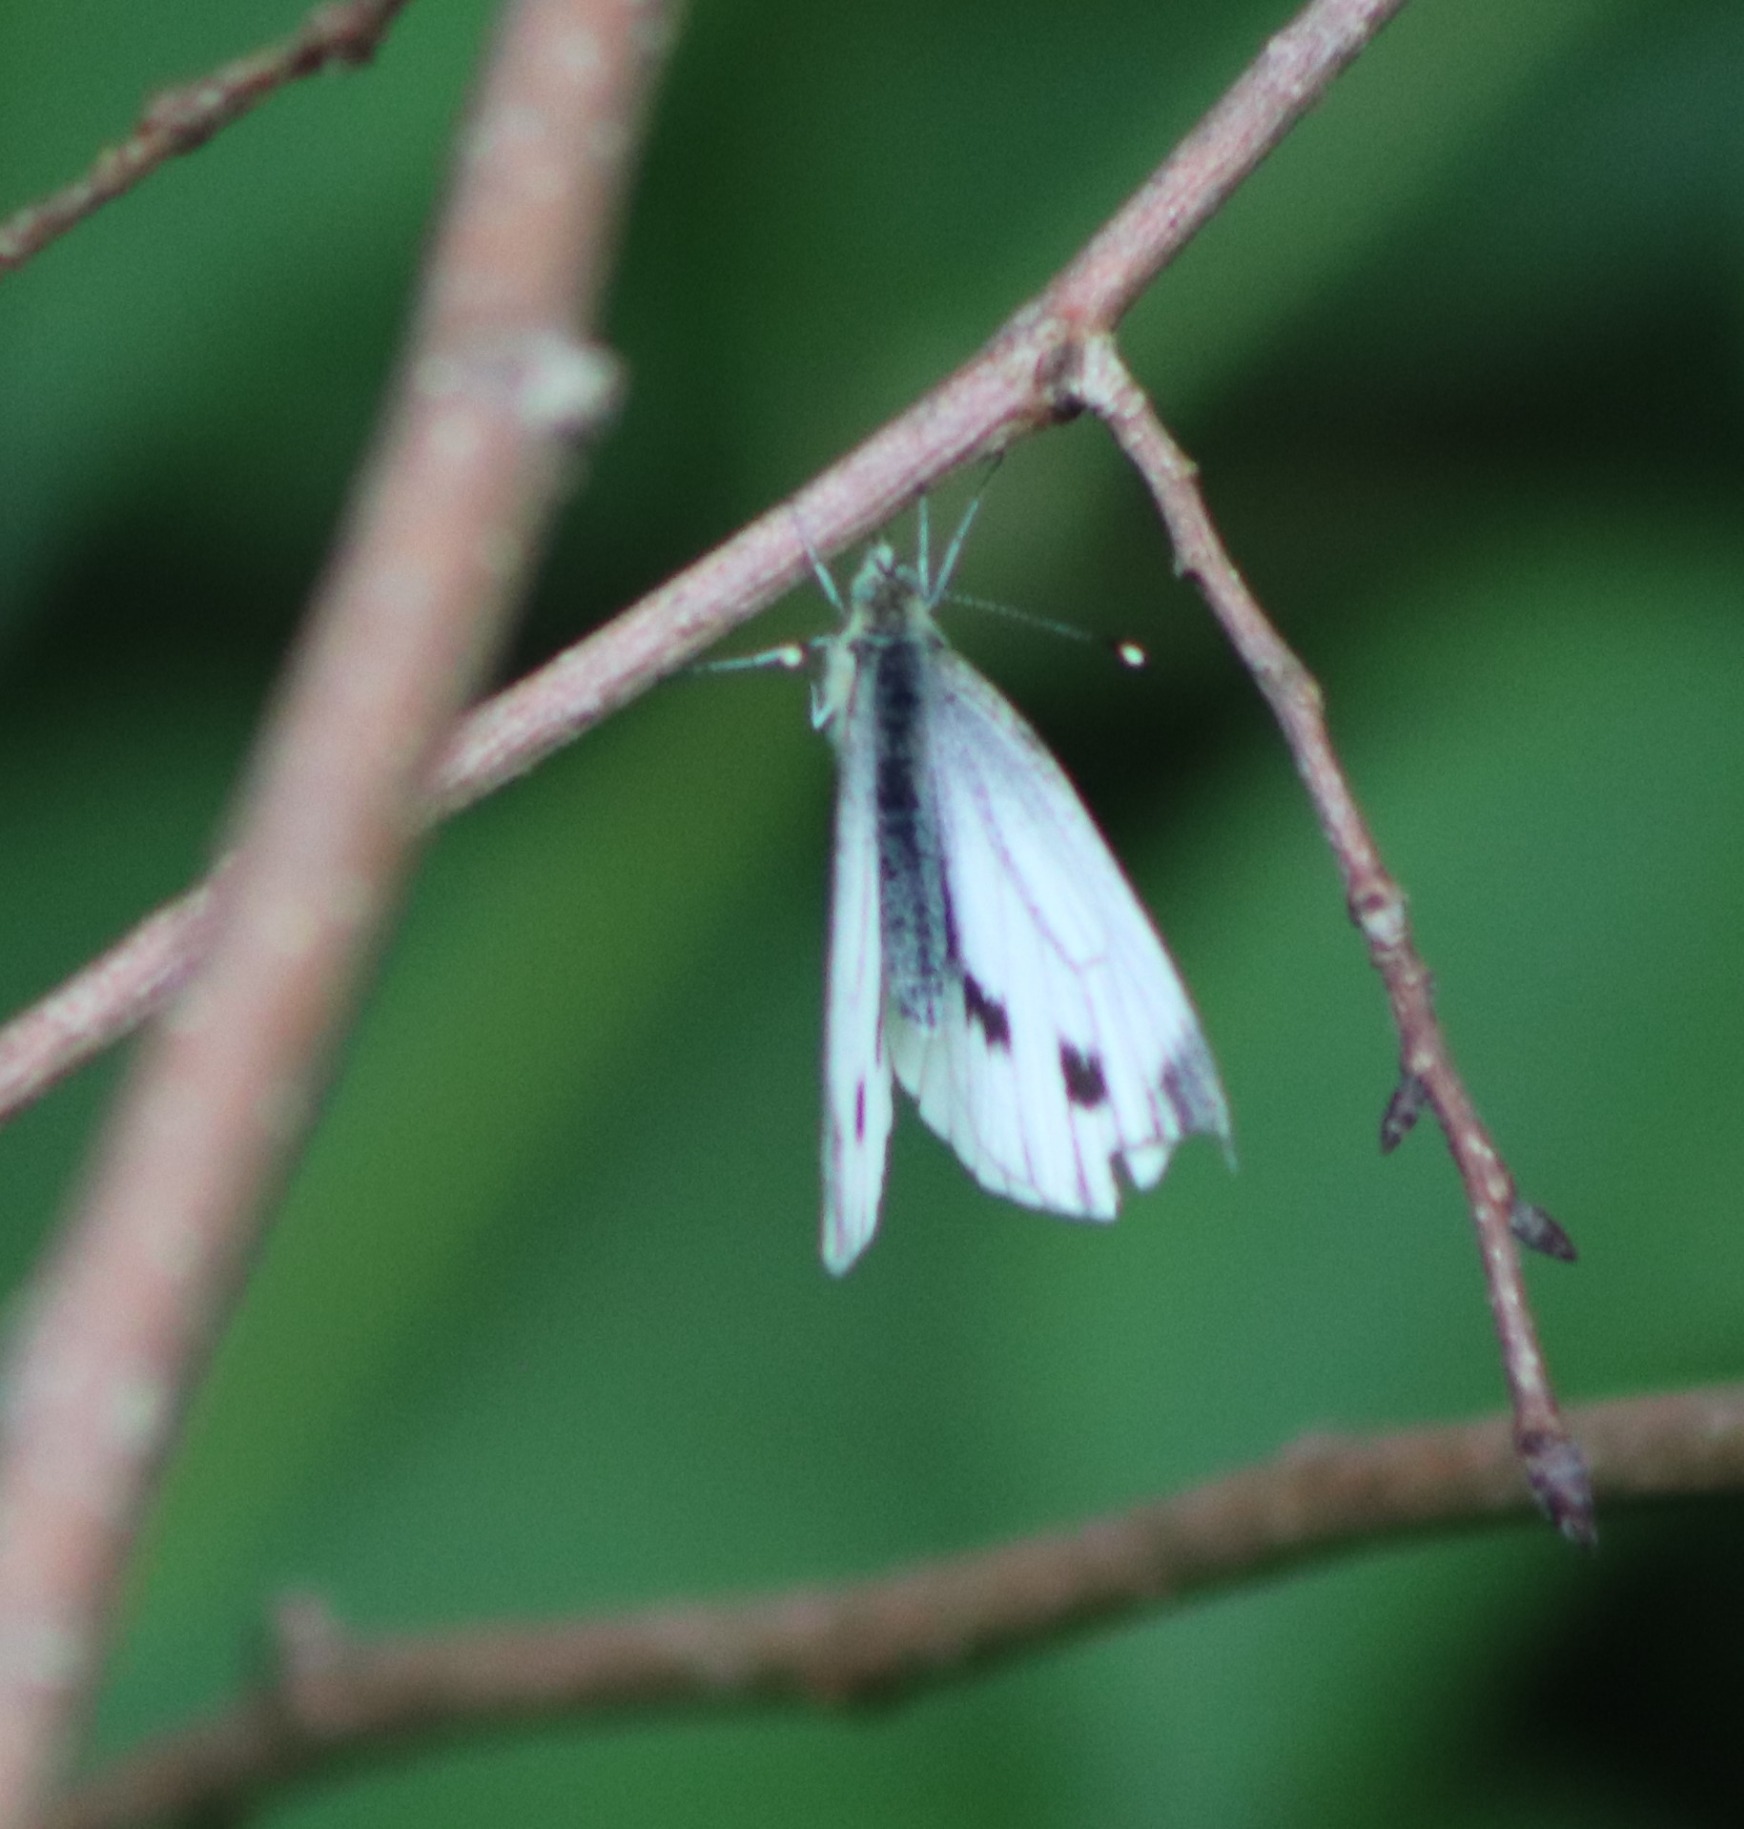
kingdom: Animalia
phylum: Arthropoda
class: Insecta
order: Lepidoptera
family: Pieridae
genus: Pieris
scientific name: Pieris napi
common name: Grønåret kålsommerfugl
